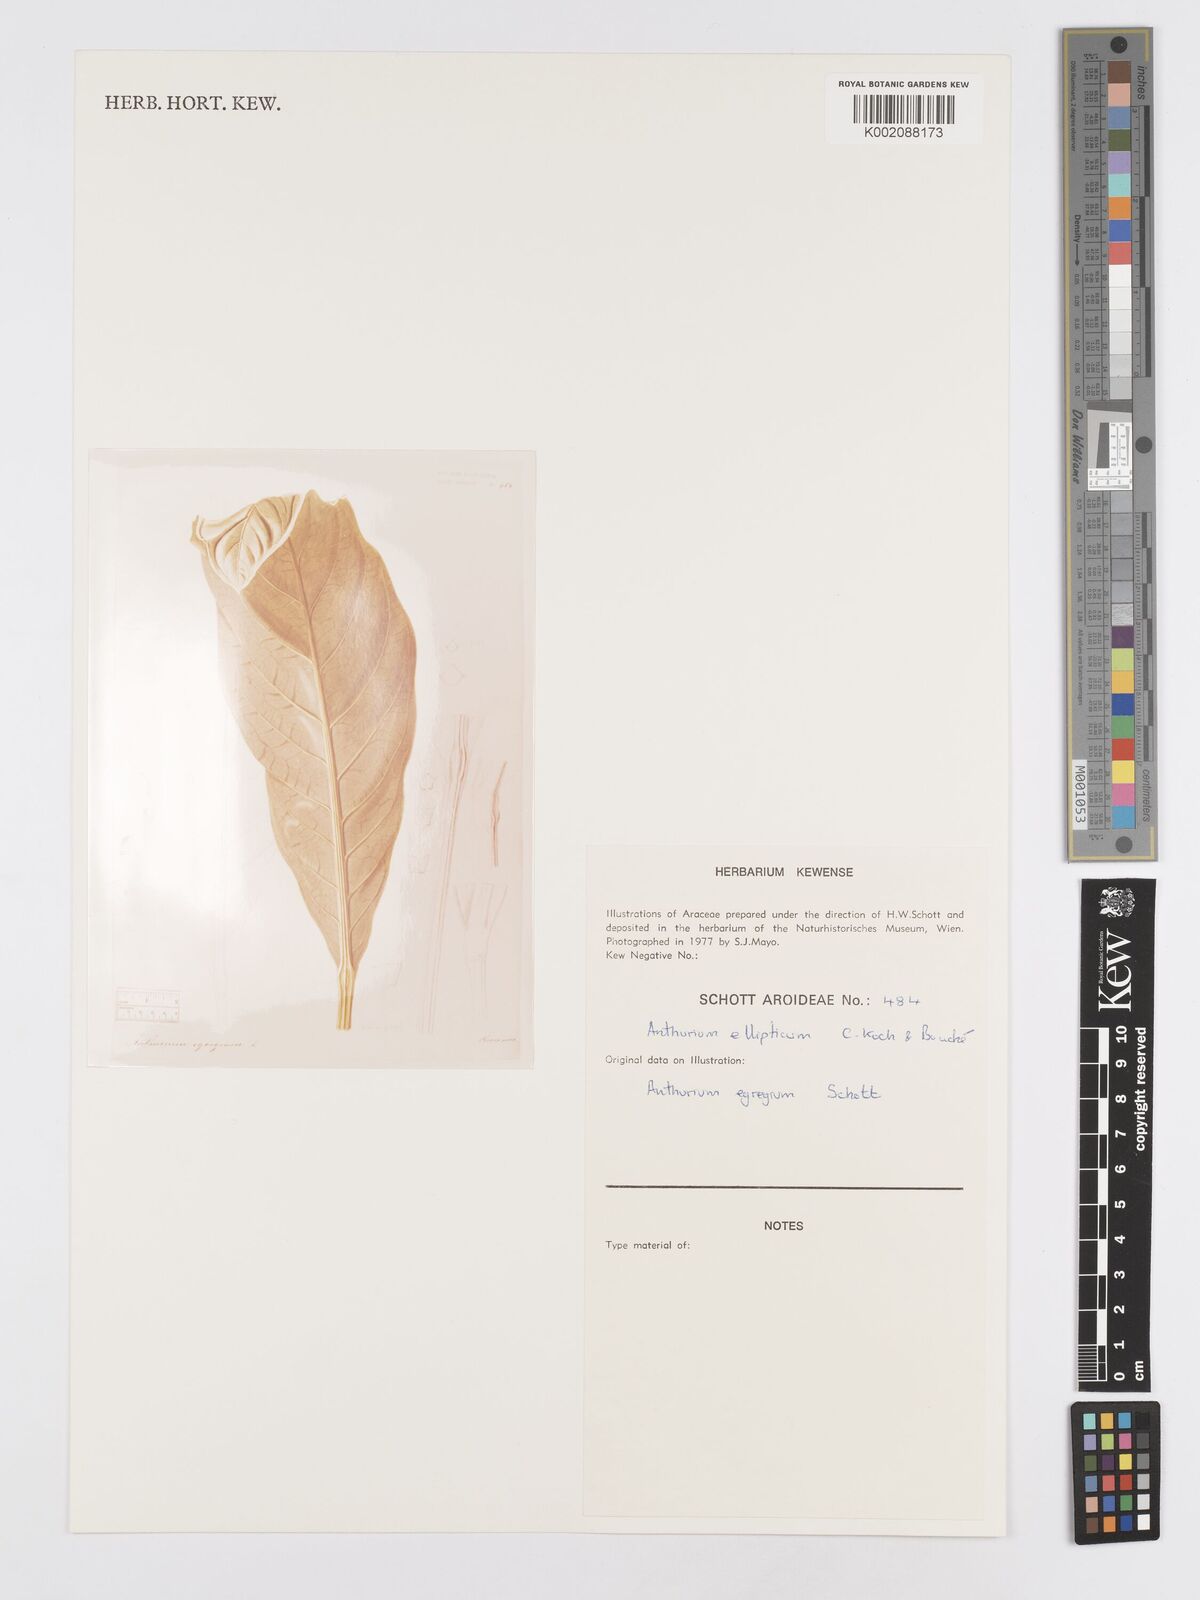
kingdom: Plantae
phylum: Tracheophyta
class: Liliopsida
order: Alismatales
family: Araceae
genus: Anthurium
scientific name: Anthurium crassinervium
